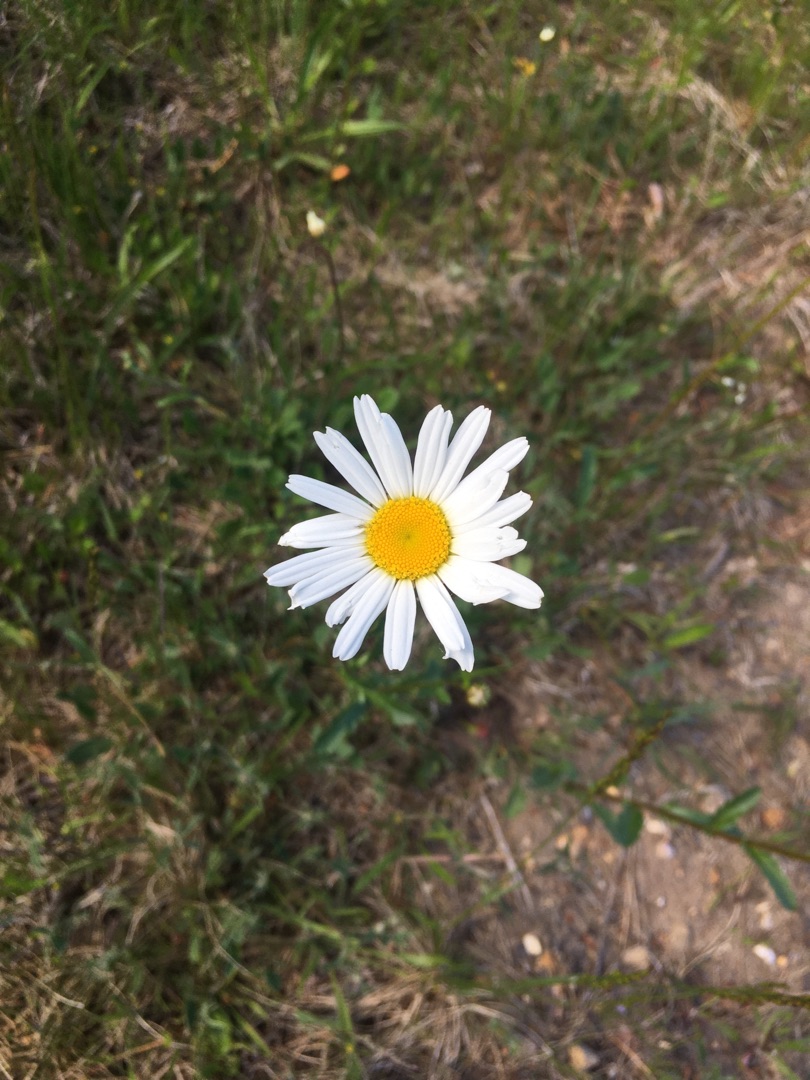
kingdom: Plantae
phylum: Tracheophyta
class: Magnoliopsida
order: Asterales
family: Asteraceae
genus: Leucanthemum
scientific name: Leucanthemum vulgare
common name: Hvid okseøje
